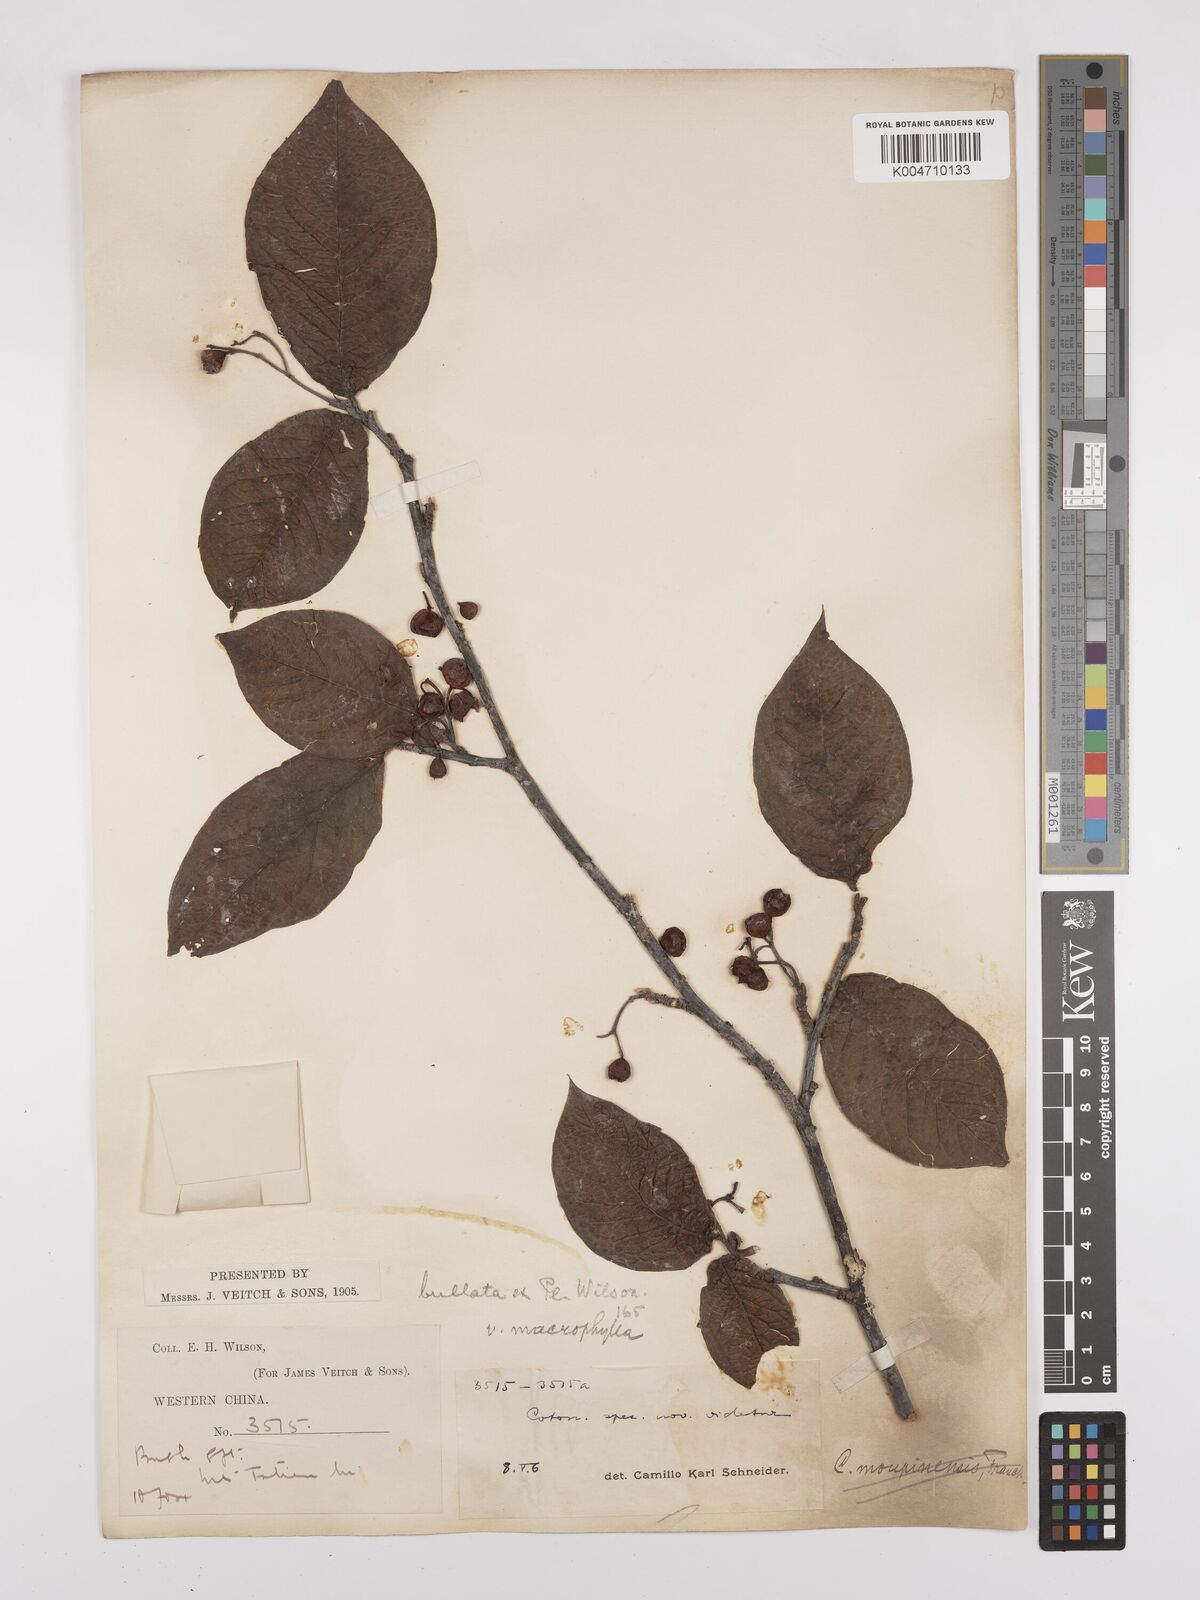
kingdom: Plantae
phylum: Tracheophyta
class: Magnoliopsida
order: Rosales
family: Rosaceae
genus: Cotoneaster
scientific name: Cotoneaster bullatus
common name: Hollyberry cotoneaster
